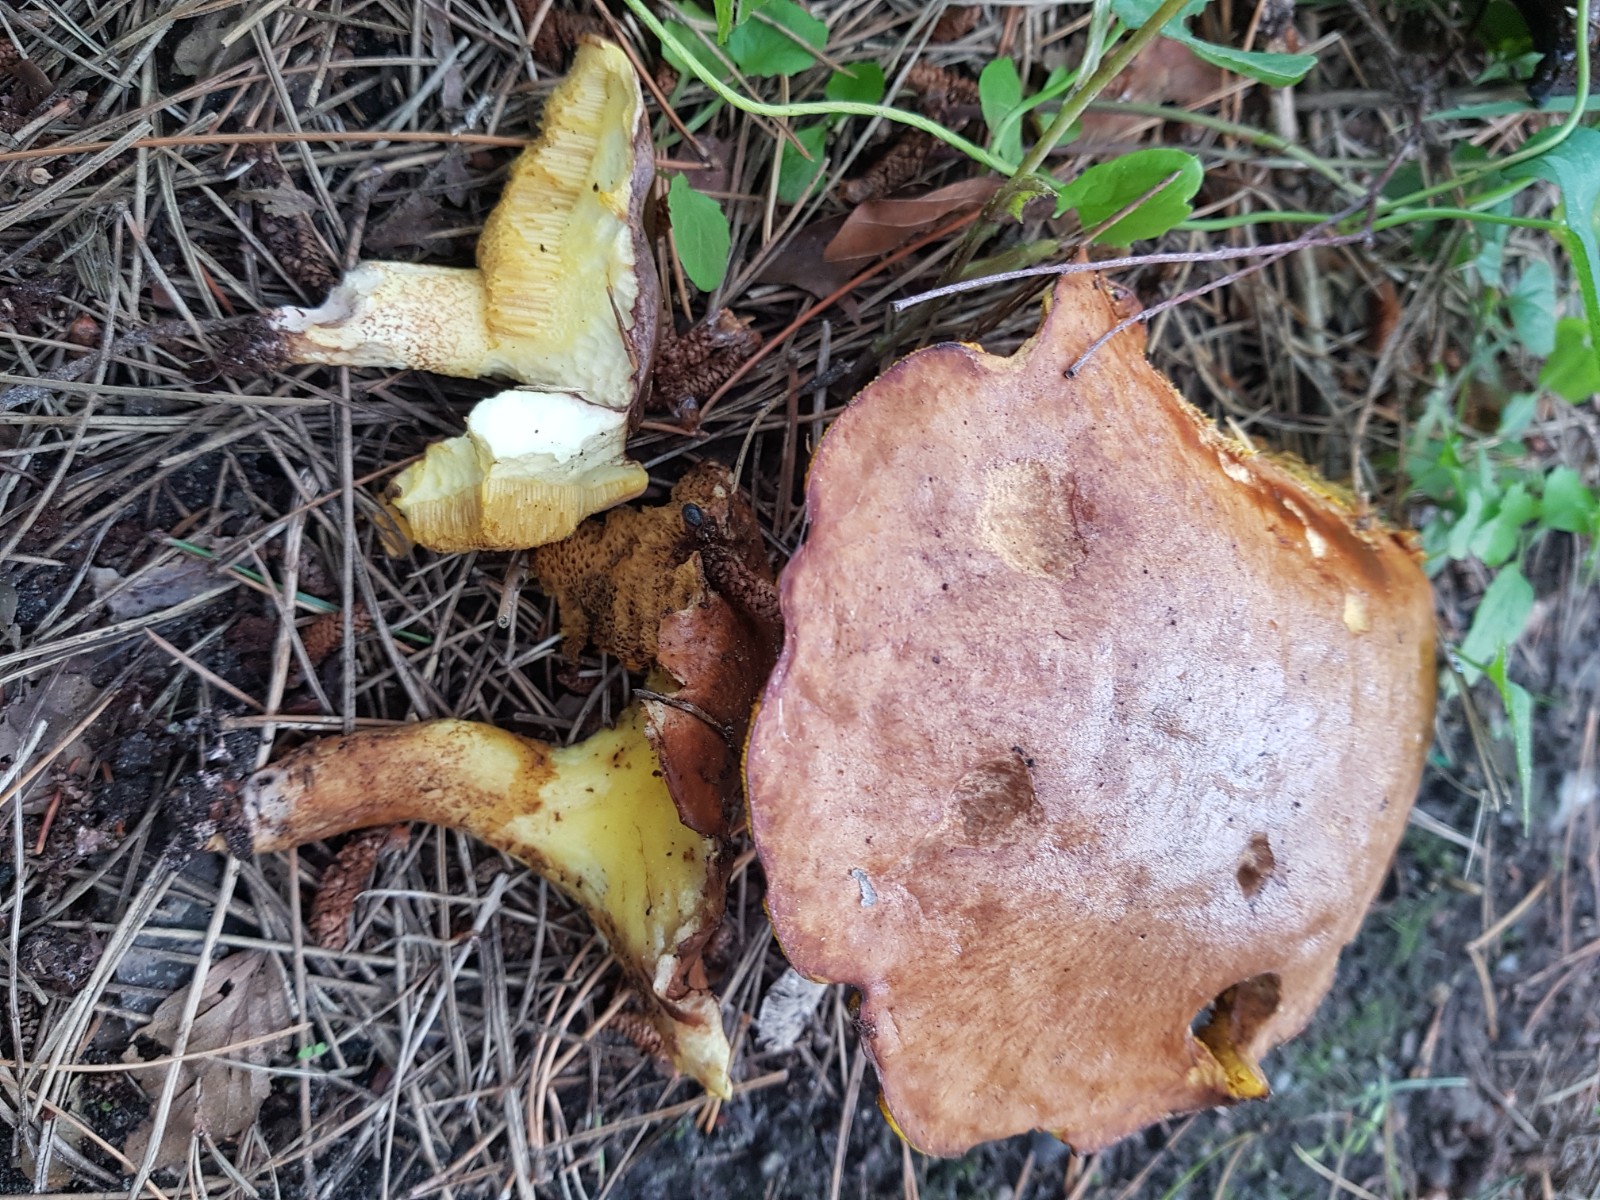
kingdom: Fungi
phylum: Basidiomycota
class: Agaricomycetes
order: Boletales
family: Suillaceae
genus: Suillus
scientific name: Suillus collinitus
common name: rosafodet slimrørhat
